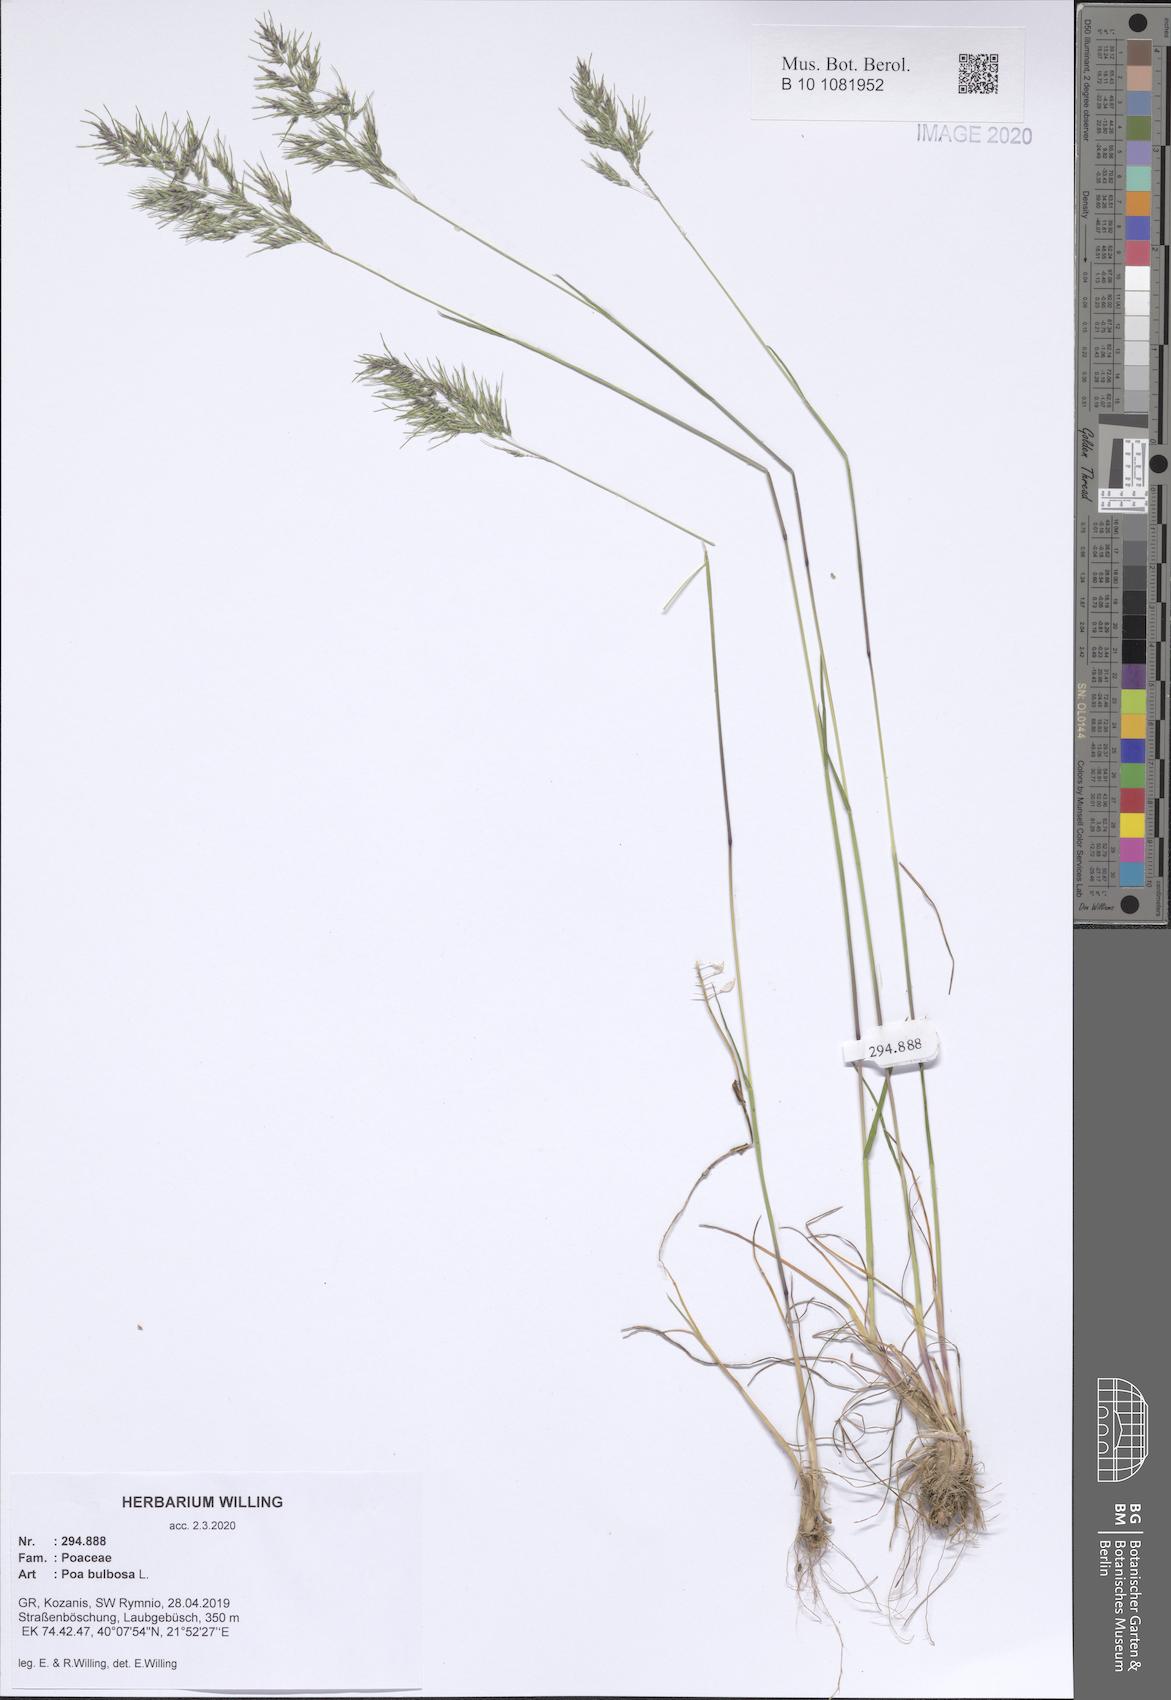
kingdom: Plantae
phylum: Tracheophyta
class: Liliopsida
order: Poales
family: Poaceae
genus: Poa
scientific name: Poa bulbosa
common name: Bulbous bluegrass
